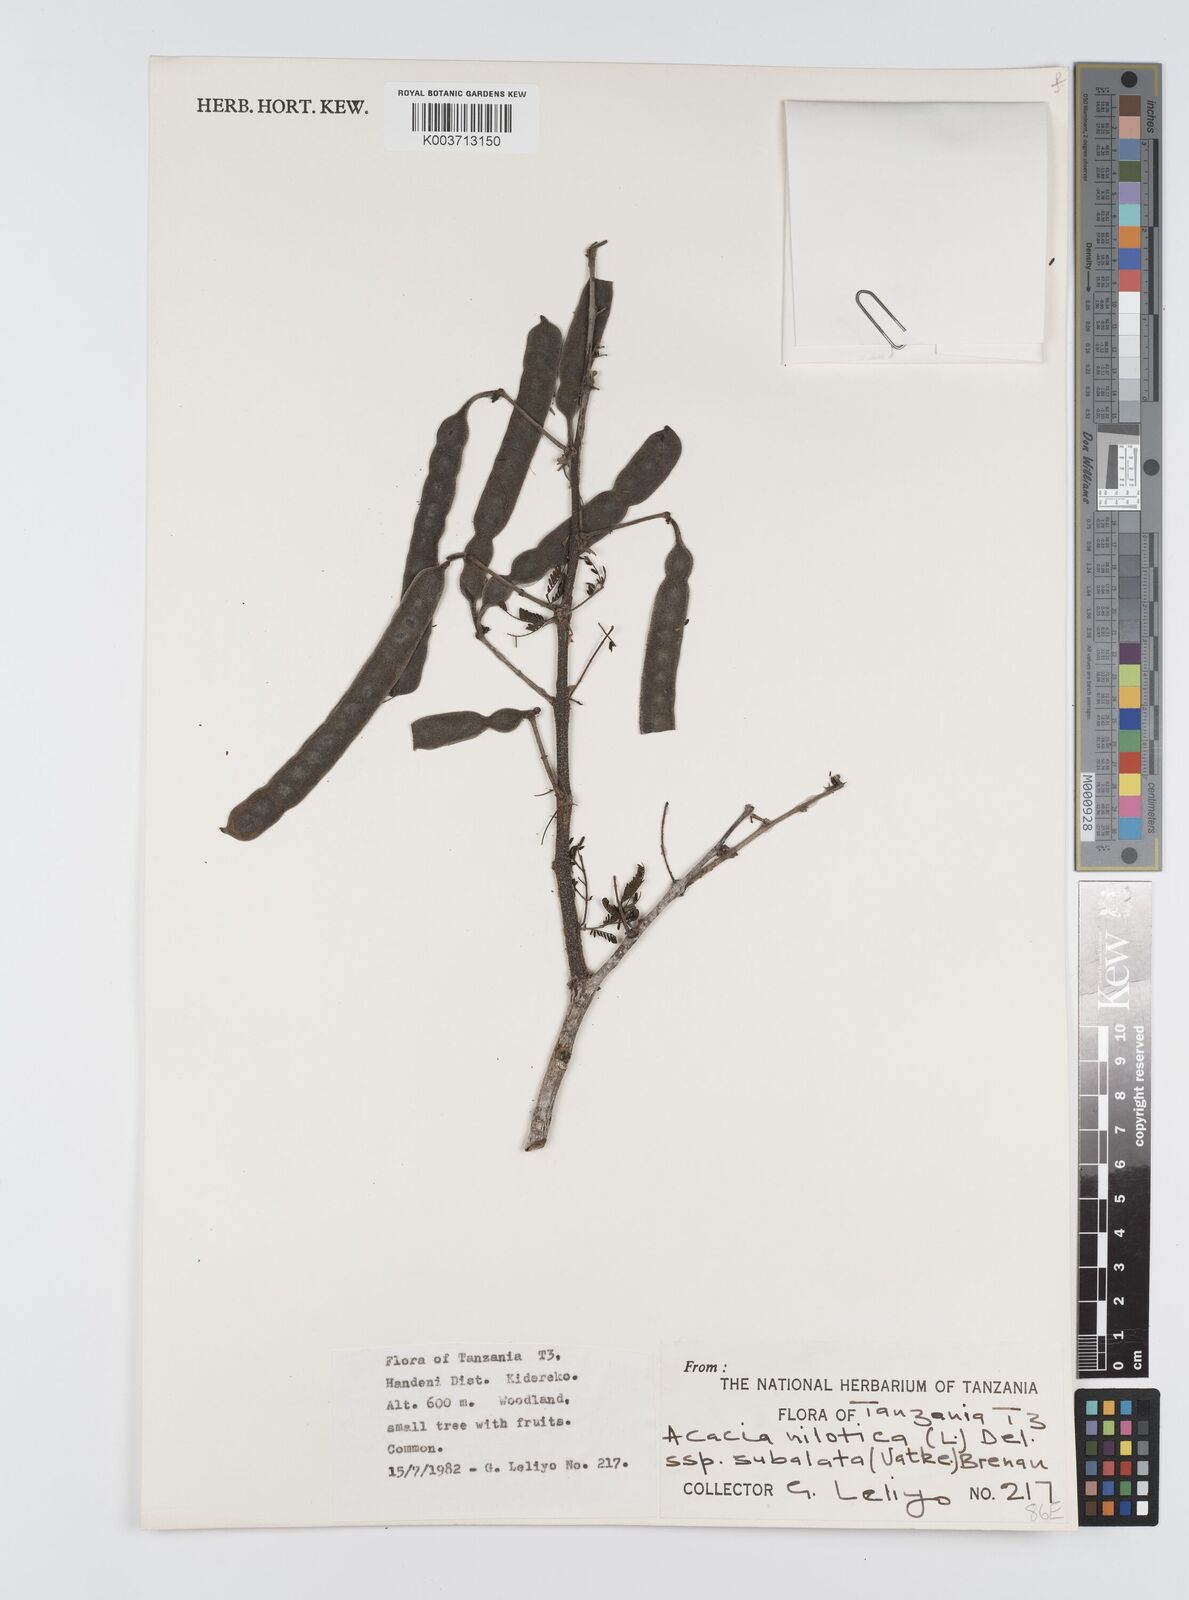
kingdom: Plantae
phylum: Tracheophyta
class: Magnoliopsida
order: Fabales
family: Fabaceae
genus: Vachellia
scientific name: Vachellia nilotica
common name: Arabic gumtree
